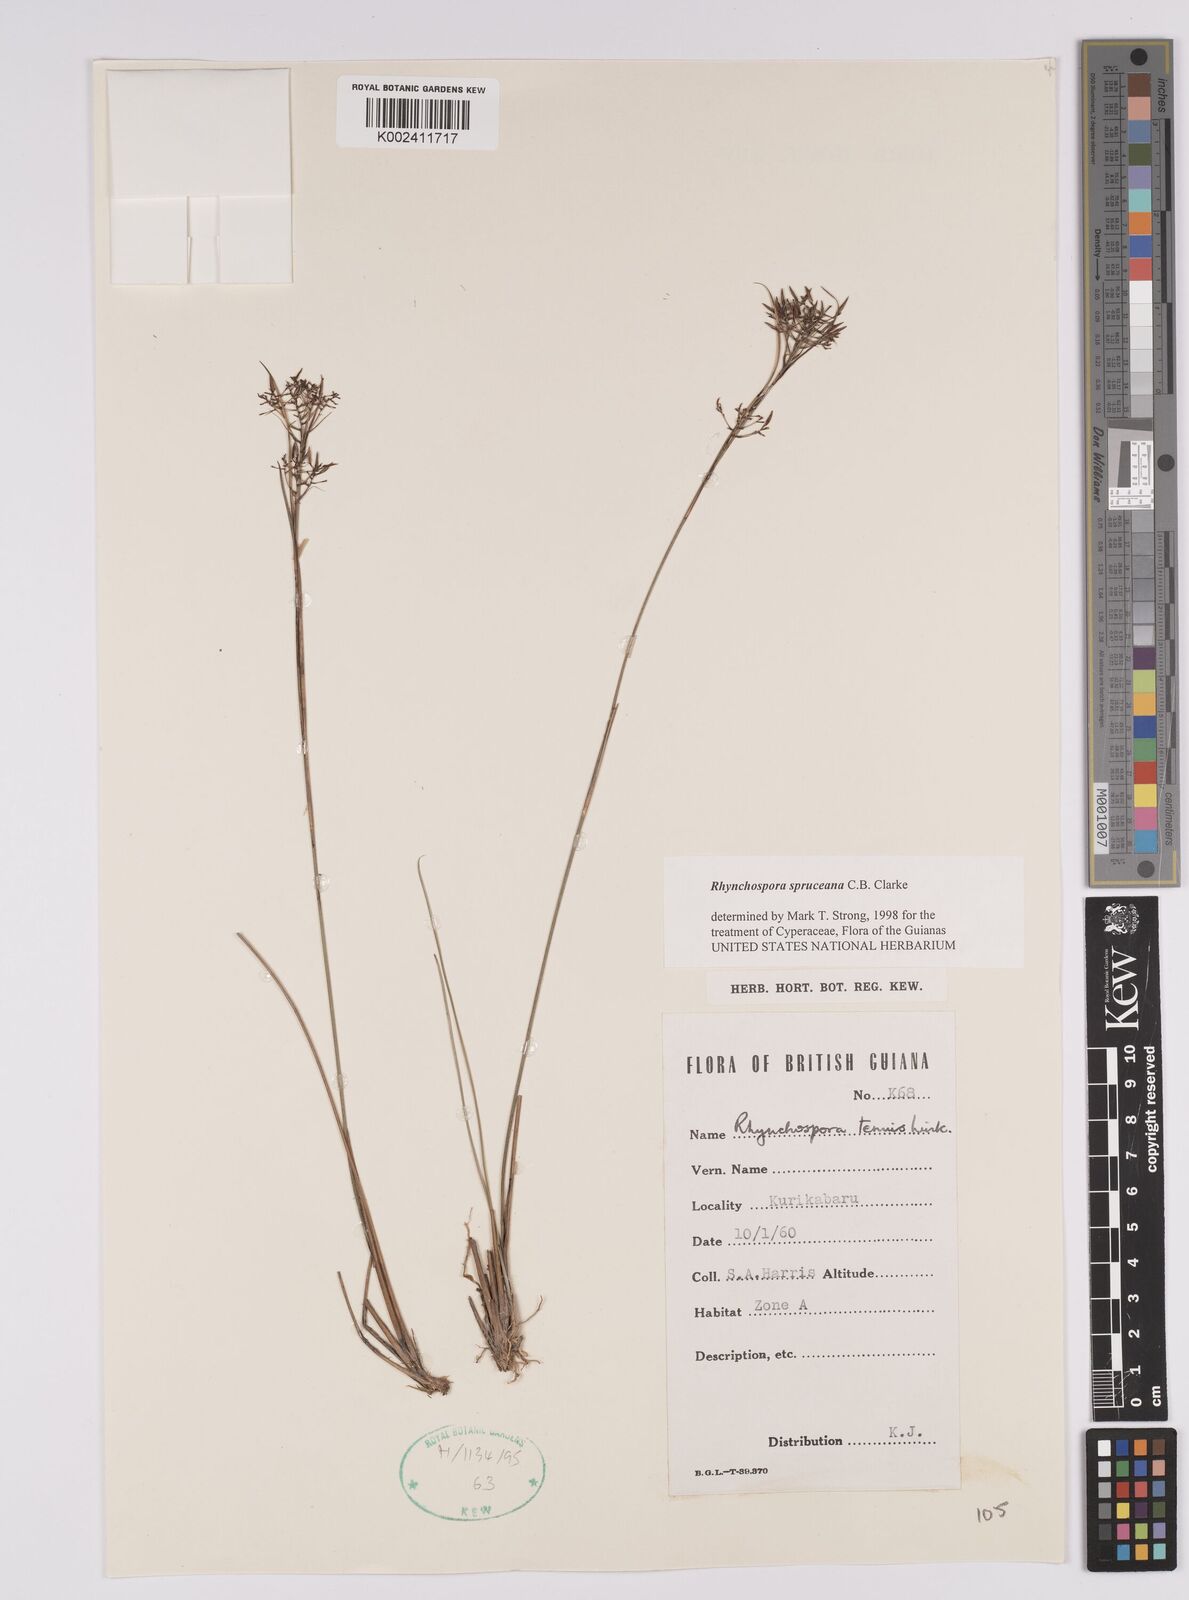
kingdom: Plantae
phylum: Tracheophyta
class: Liliopsida
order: Poales
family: Cyperaceae
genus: Rhynchospora
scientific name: Rhynchospora spruceana
